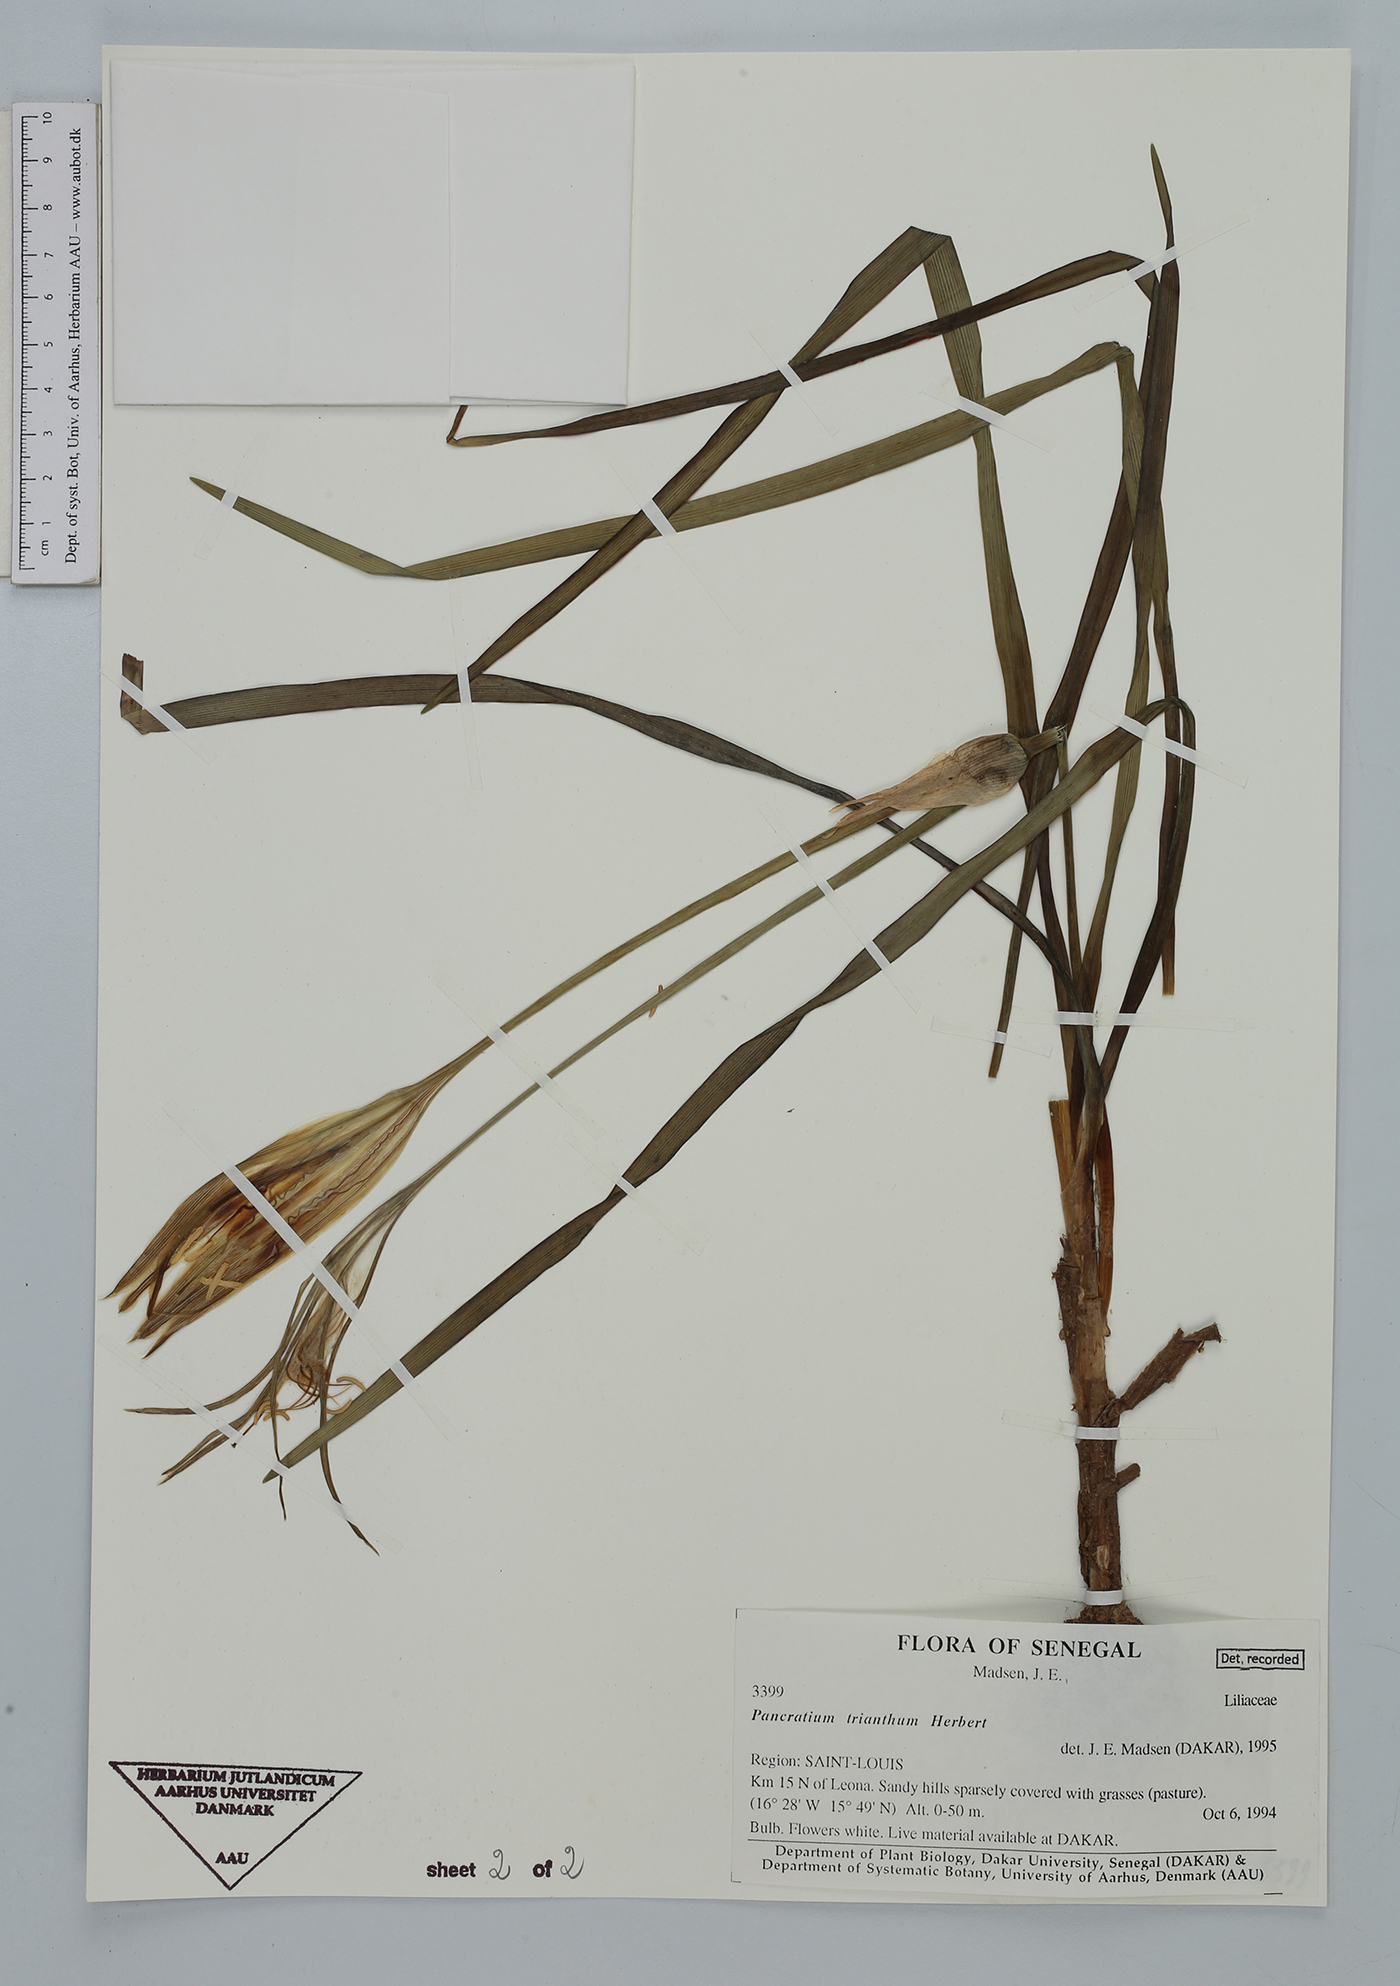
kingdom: Plantae
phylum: Tracheophyta
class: Liliopsida
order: Asparagales
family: Amaryllidaceae
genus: Pancratium
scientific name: Pancratium trianthum
